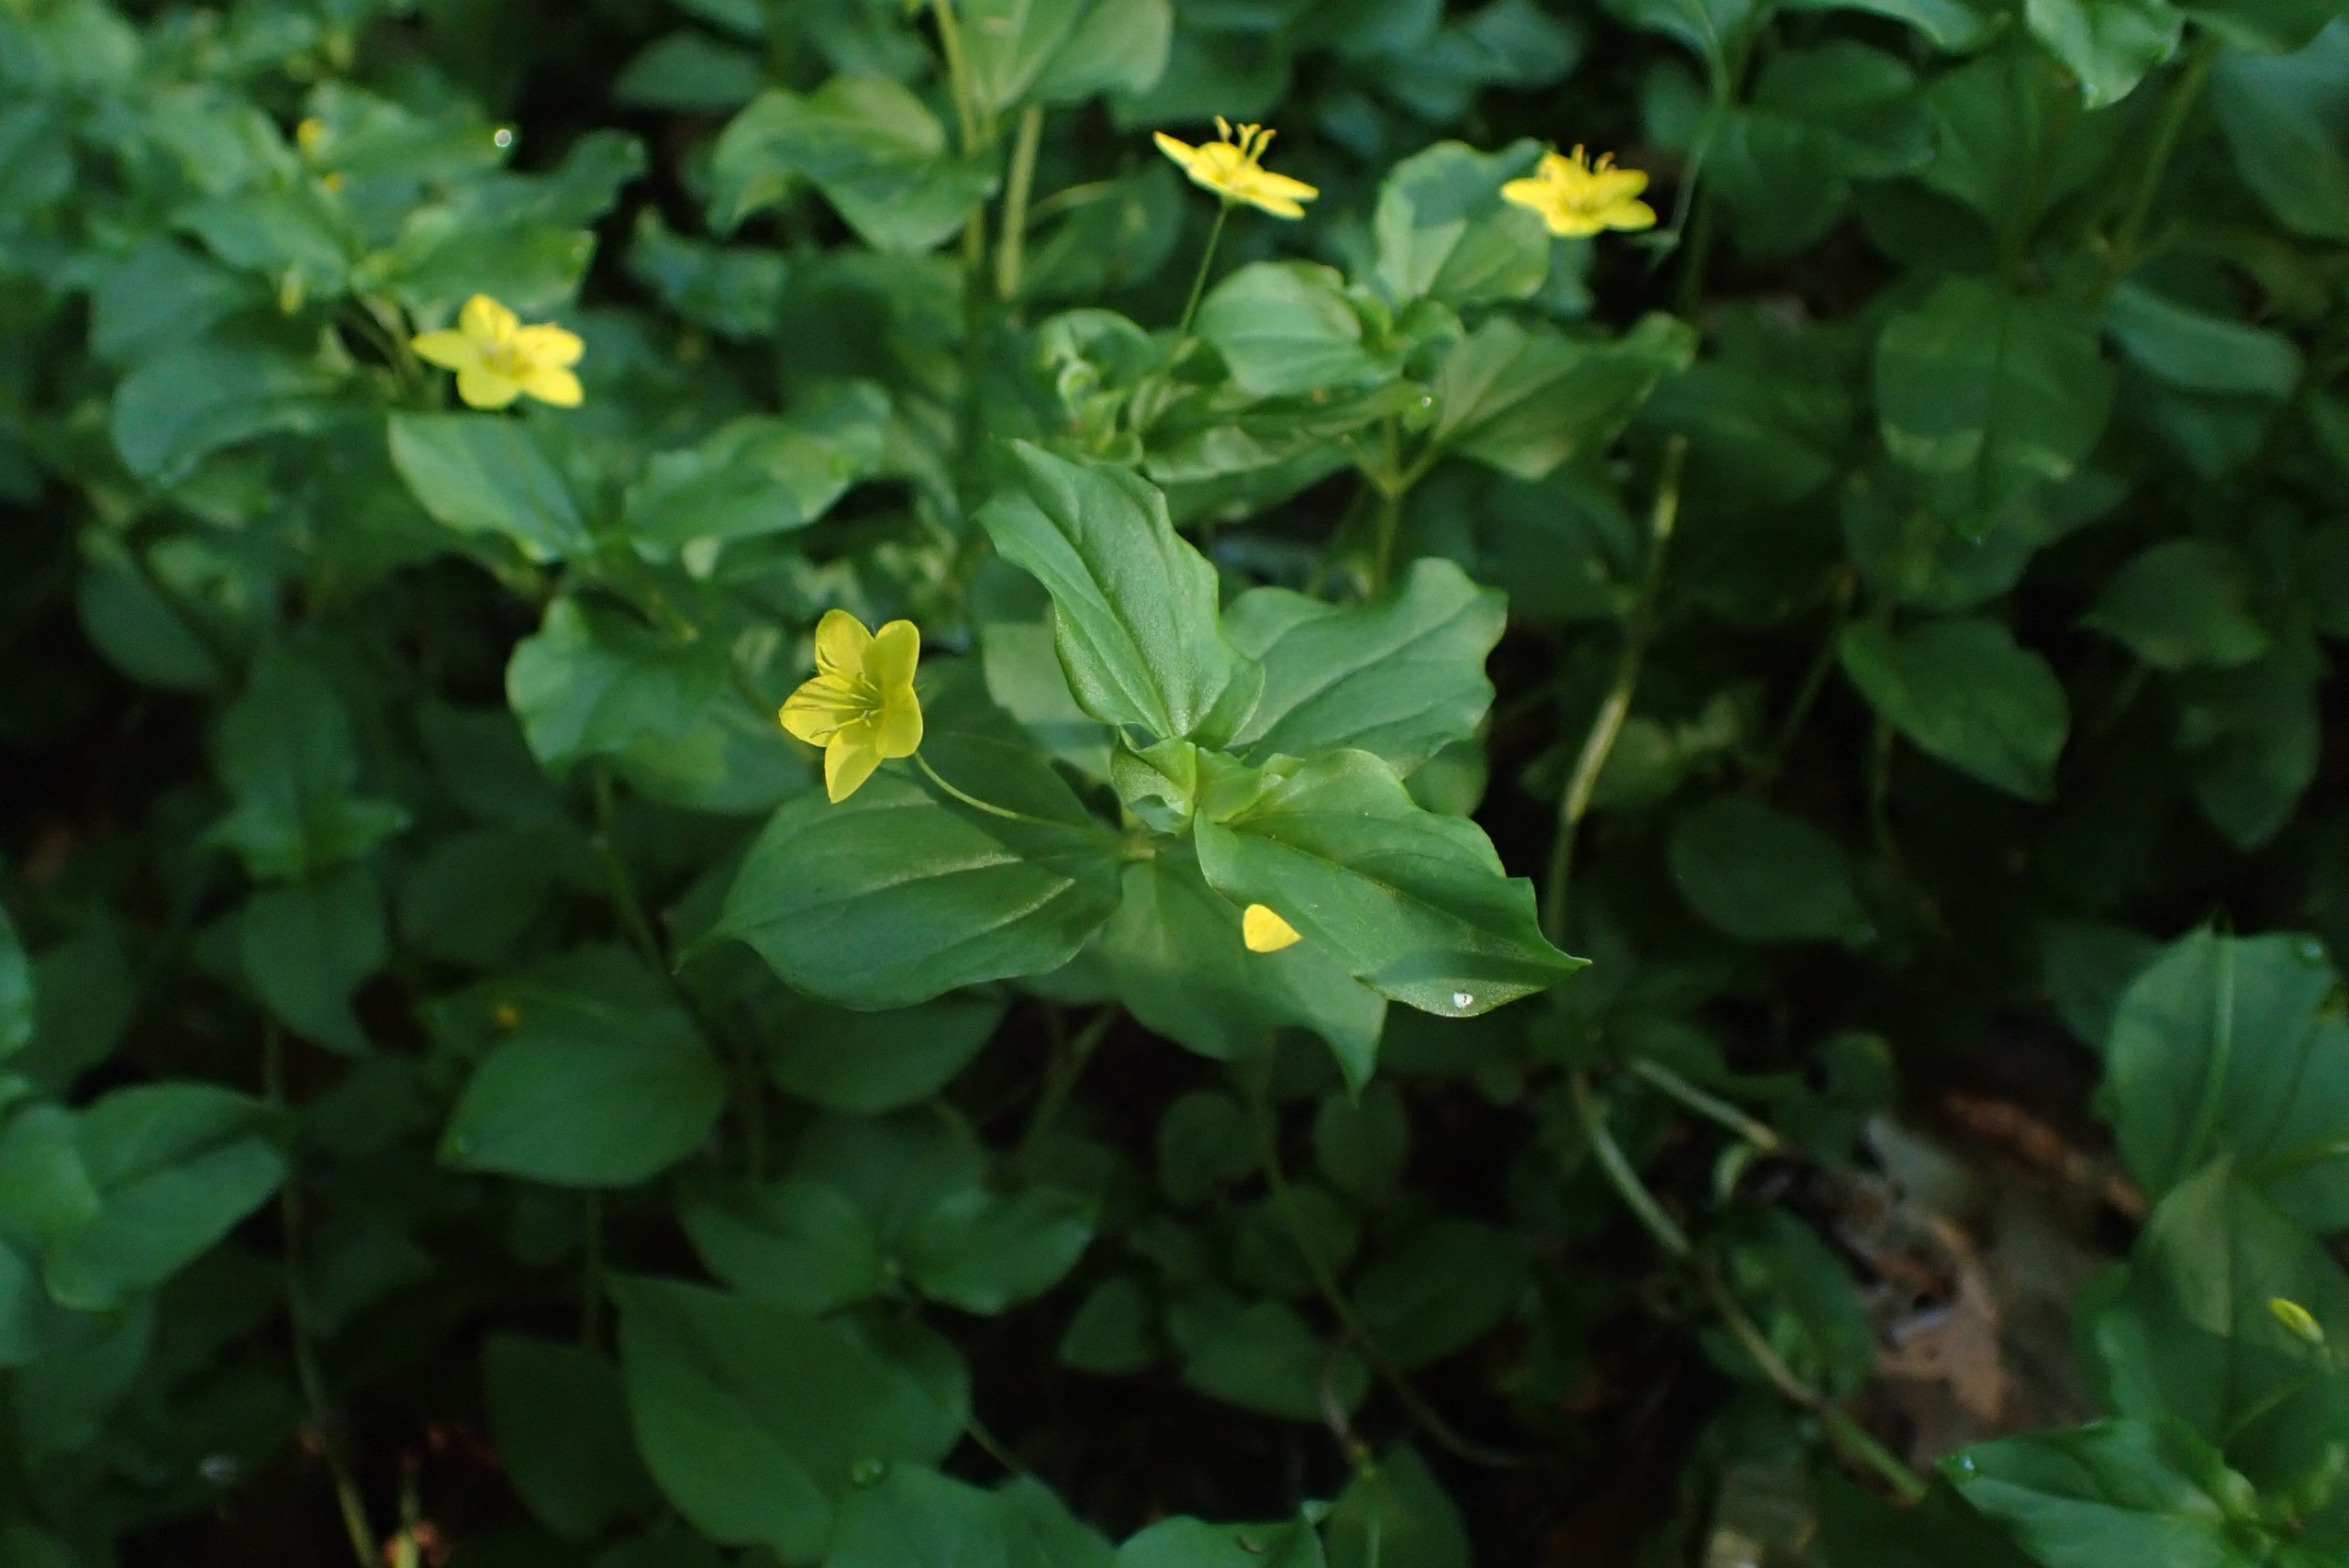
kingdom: Plantae
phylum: Tracheophyta
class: Magnoliopsida
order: Ericales
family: Primulaceae
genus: Lysimachia
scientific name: Lysimachia nemorum
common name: Lund-fredløs
